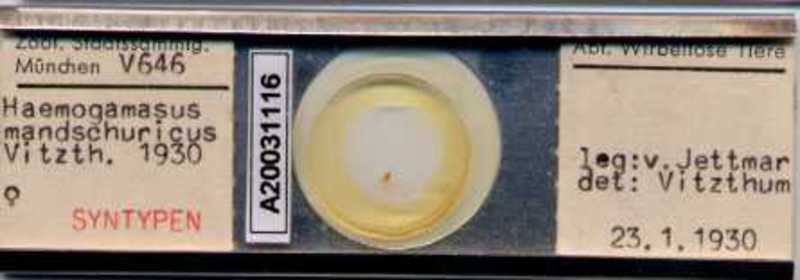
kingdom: Animalia
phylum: Arthropoda
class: Arachnida
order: Mesostigmata
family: Parasitidae
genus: Haemogamasus
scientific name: Haemogamasus mandshuricus
